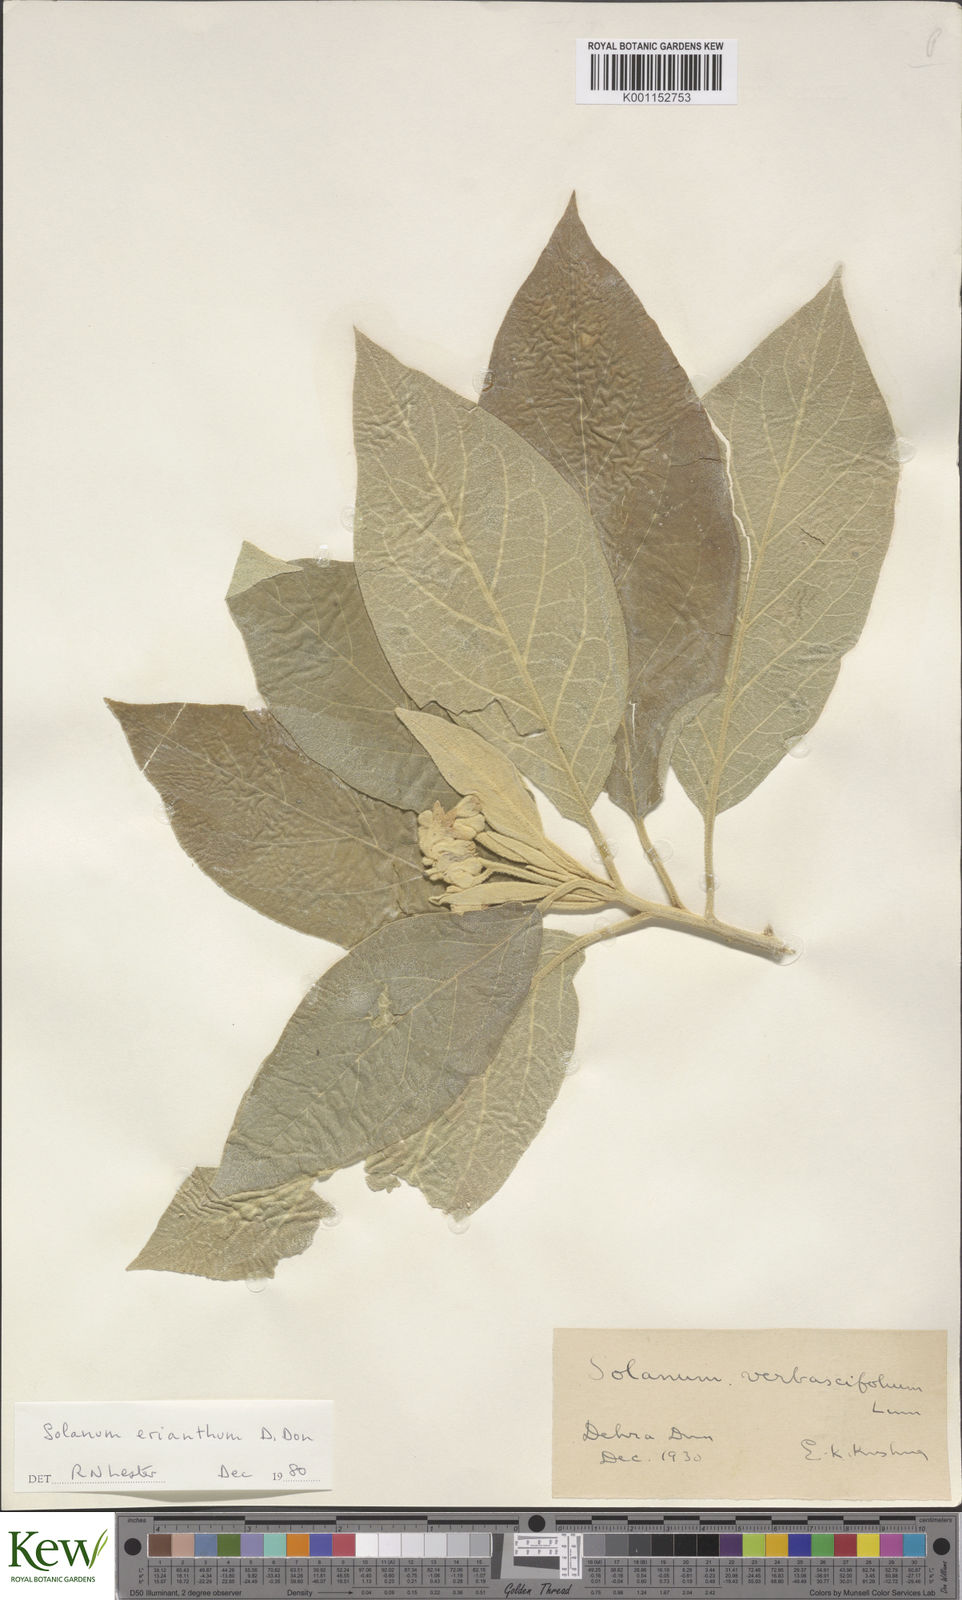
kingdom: Plantae
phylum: Tracheophyta
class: Magnoliopsida
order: Solanales
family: Solanaceae
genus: Solanum
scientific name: Solanum erianthum
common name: Tobacco-tree
